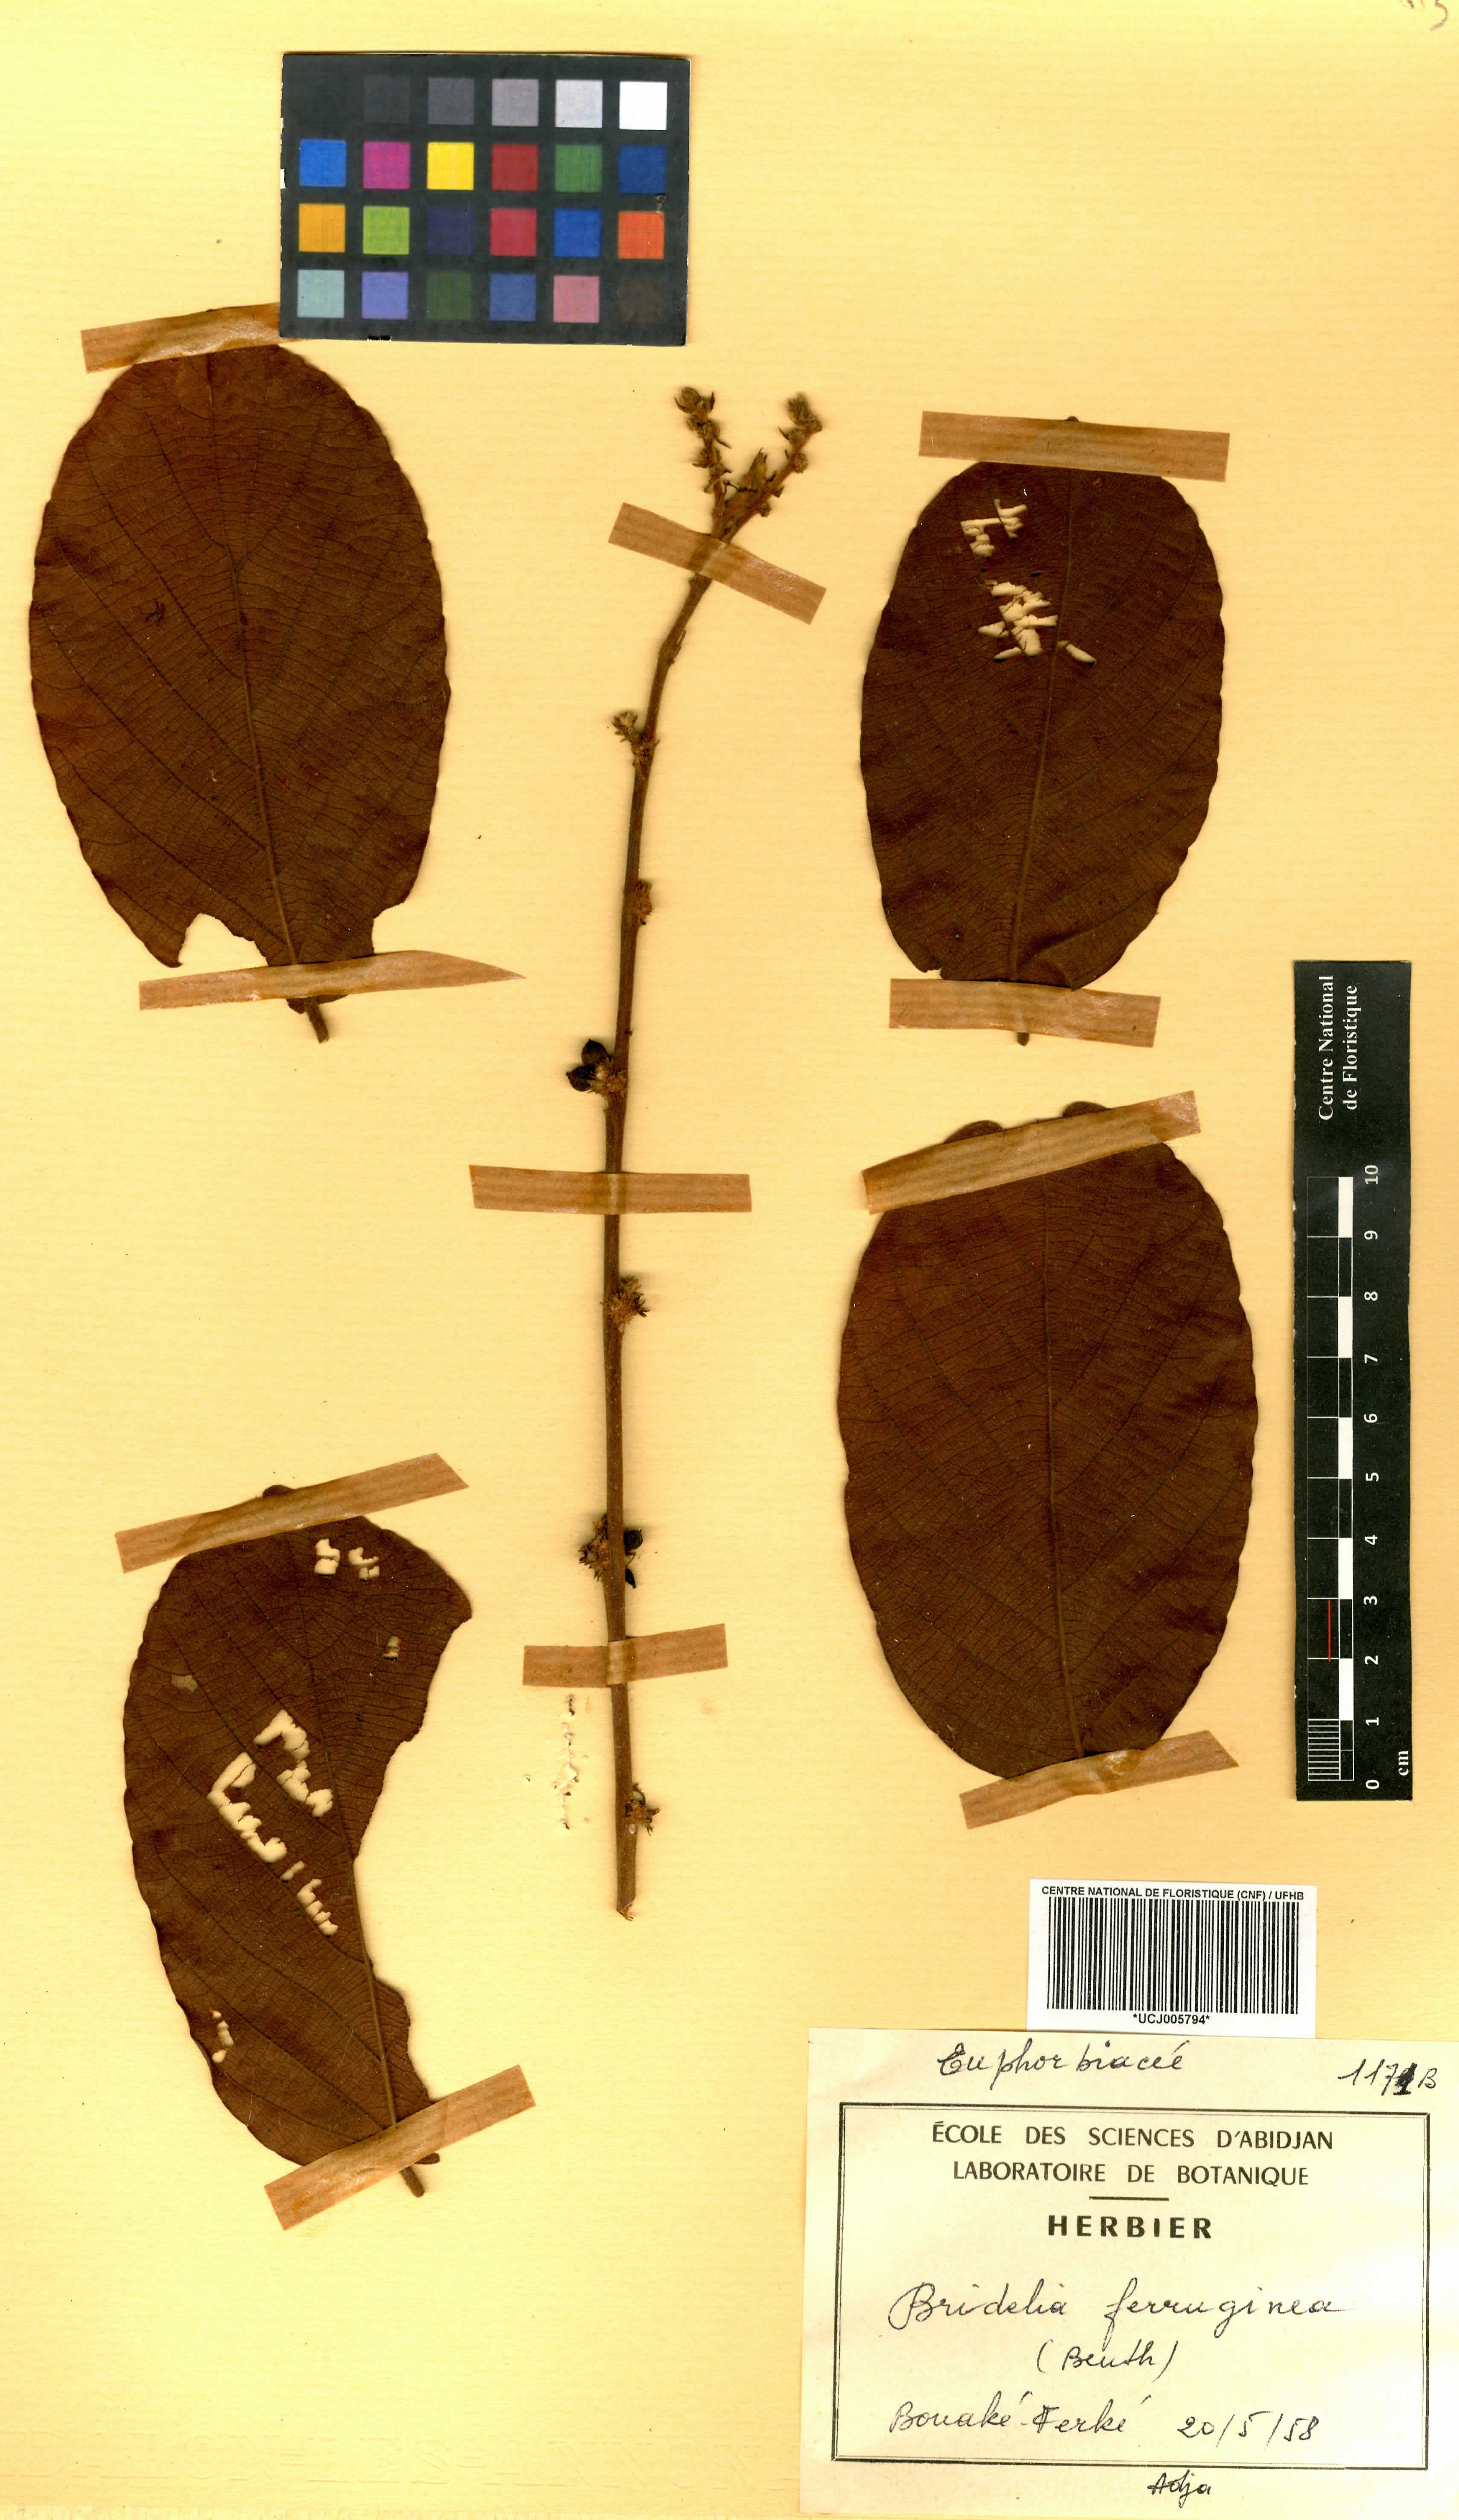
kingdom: Plantae
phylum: Tracheophyta
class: Magnoliopsida
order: Malpighiales
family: Phyllanthaceae
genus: Bridelia
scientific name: Bridelia ferruginea
